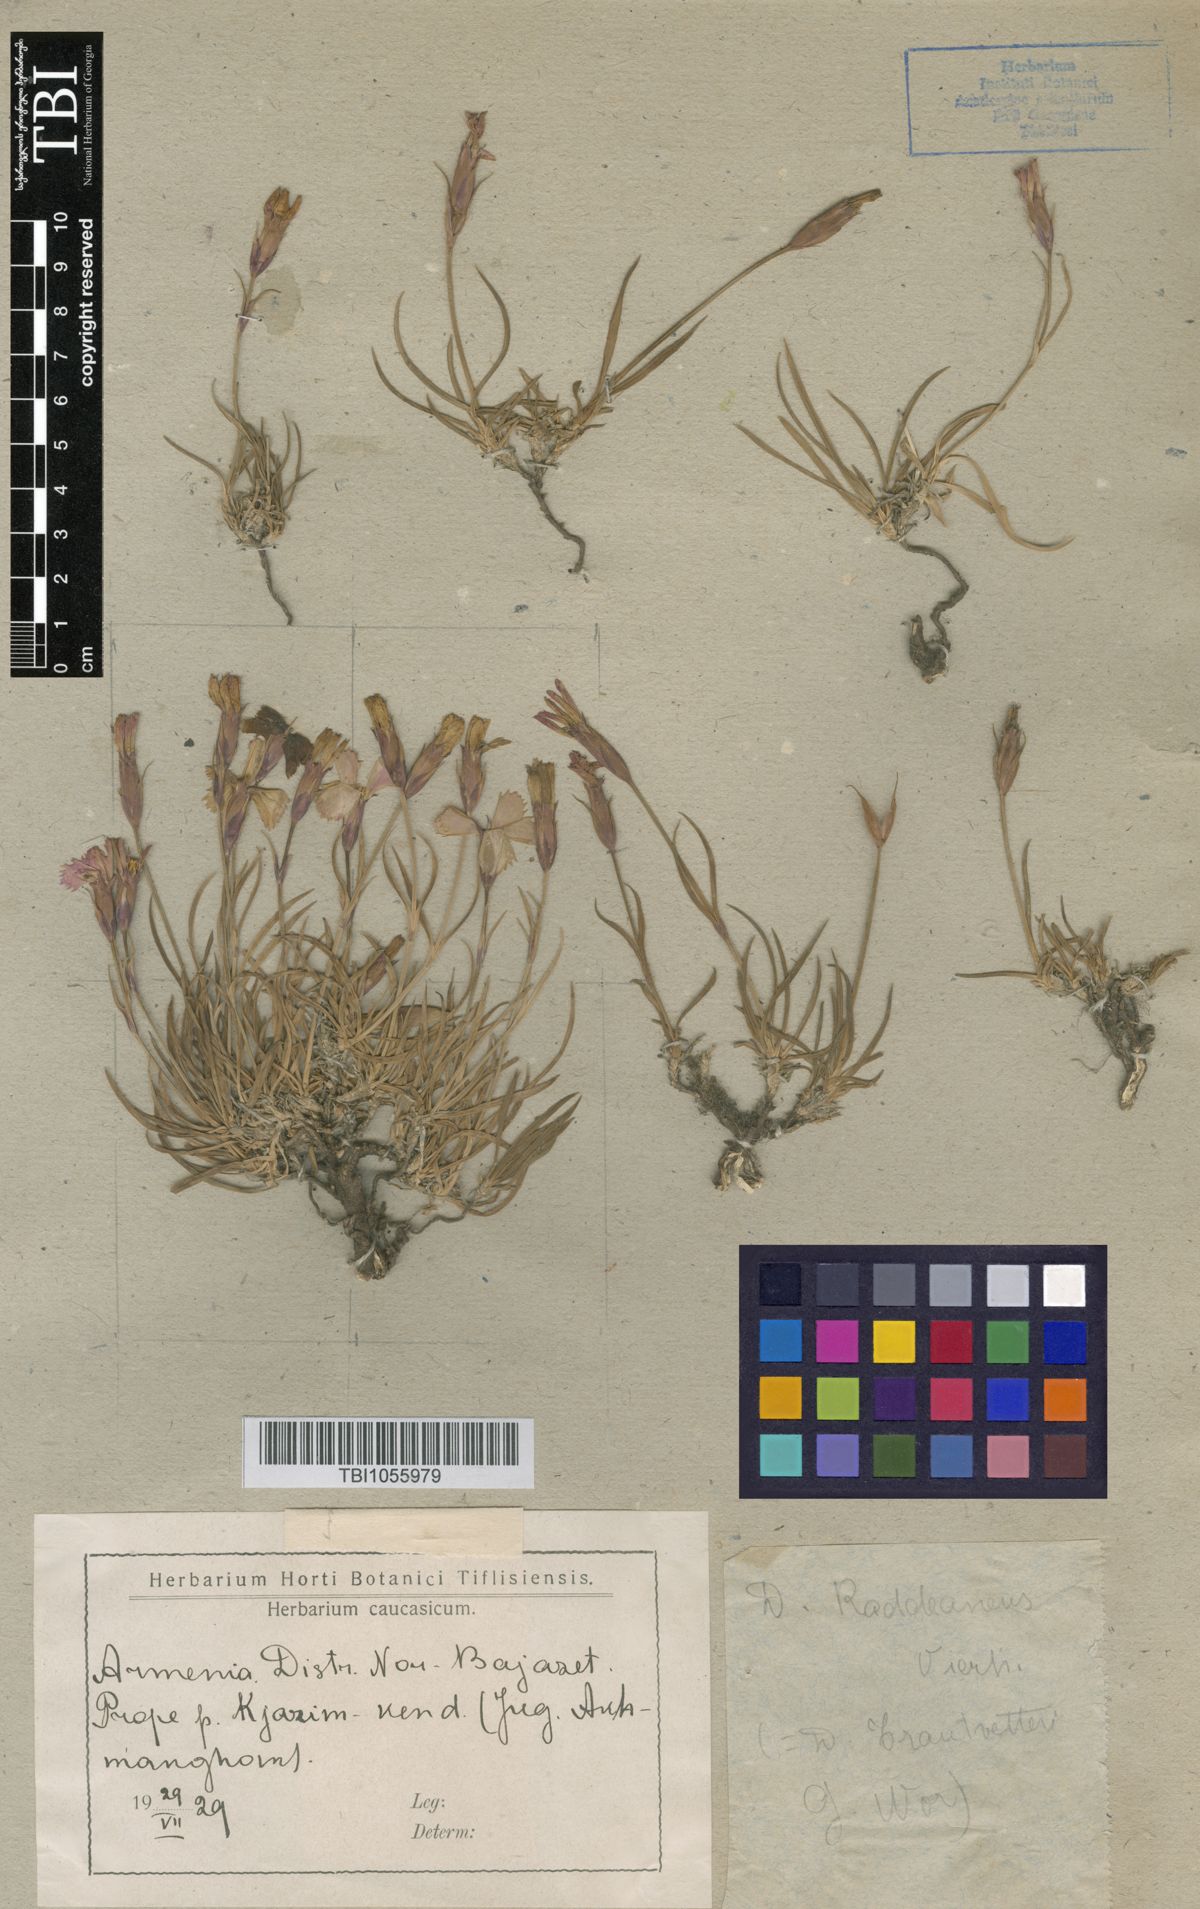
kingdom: Plantae
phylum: Tracheophyta
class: Magnoliopsida
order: Caryophyllales
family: Caryophyllaceae
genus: Dianthus
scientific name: Dianthus raddeanus
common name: Radde's pink
